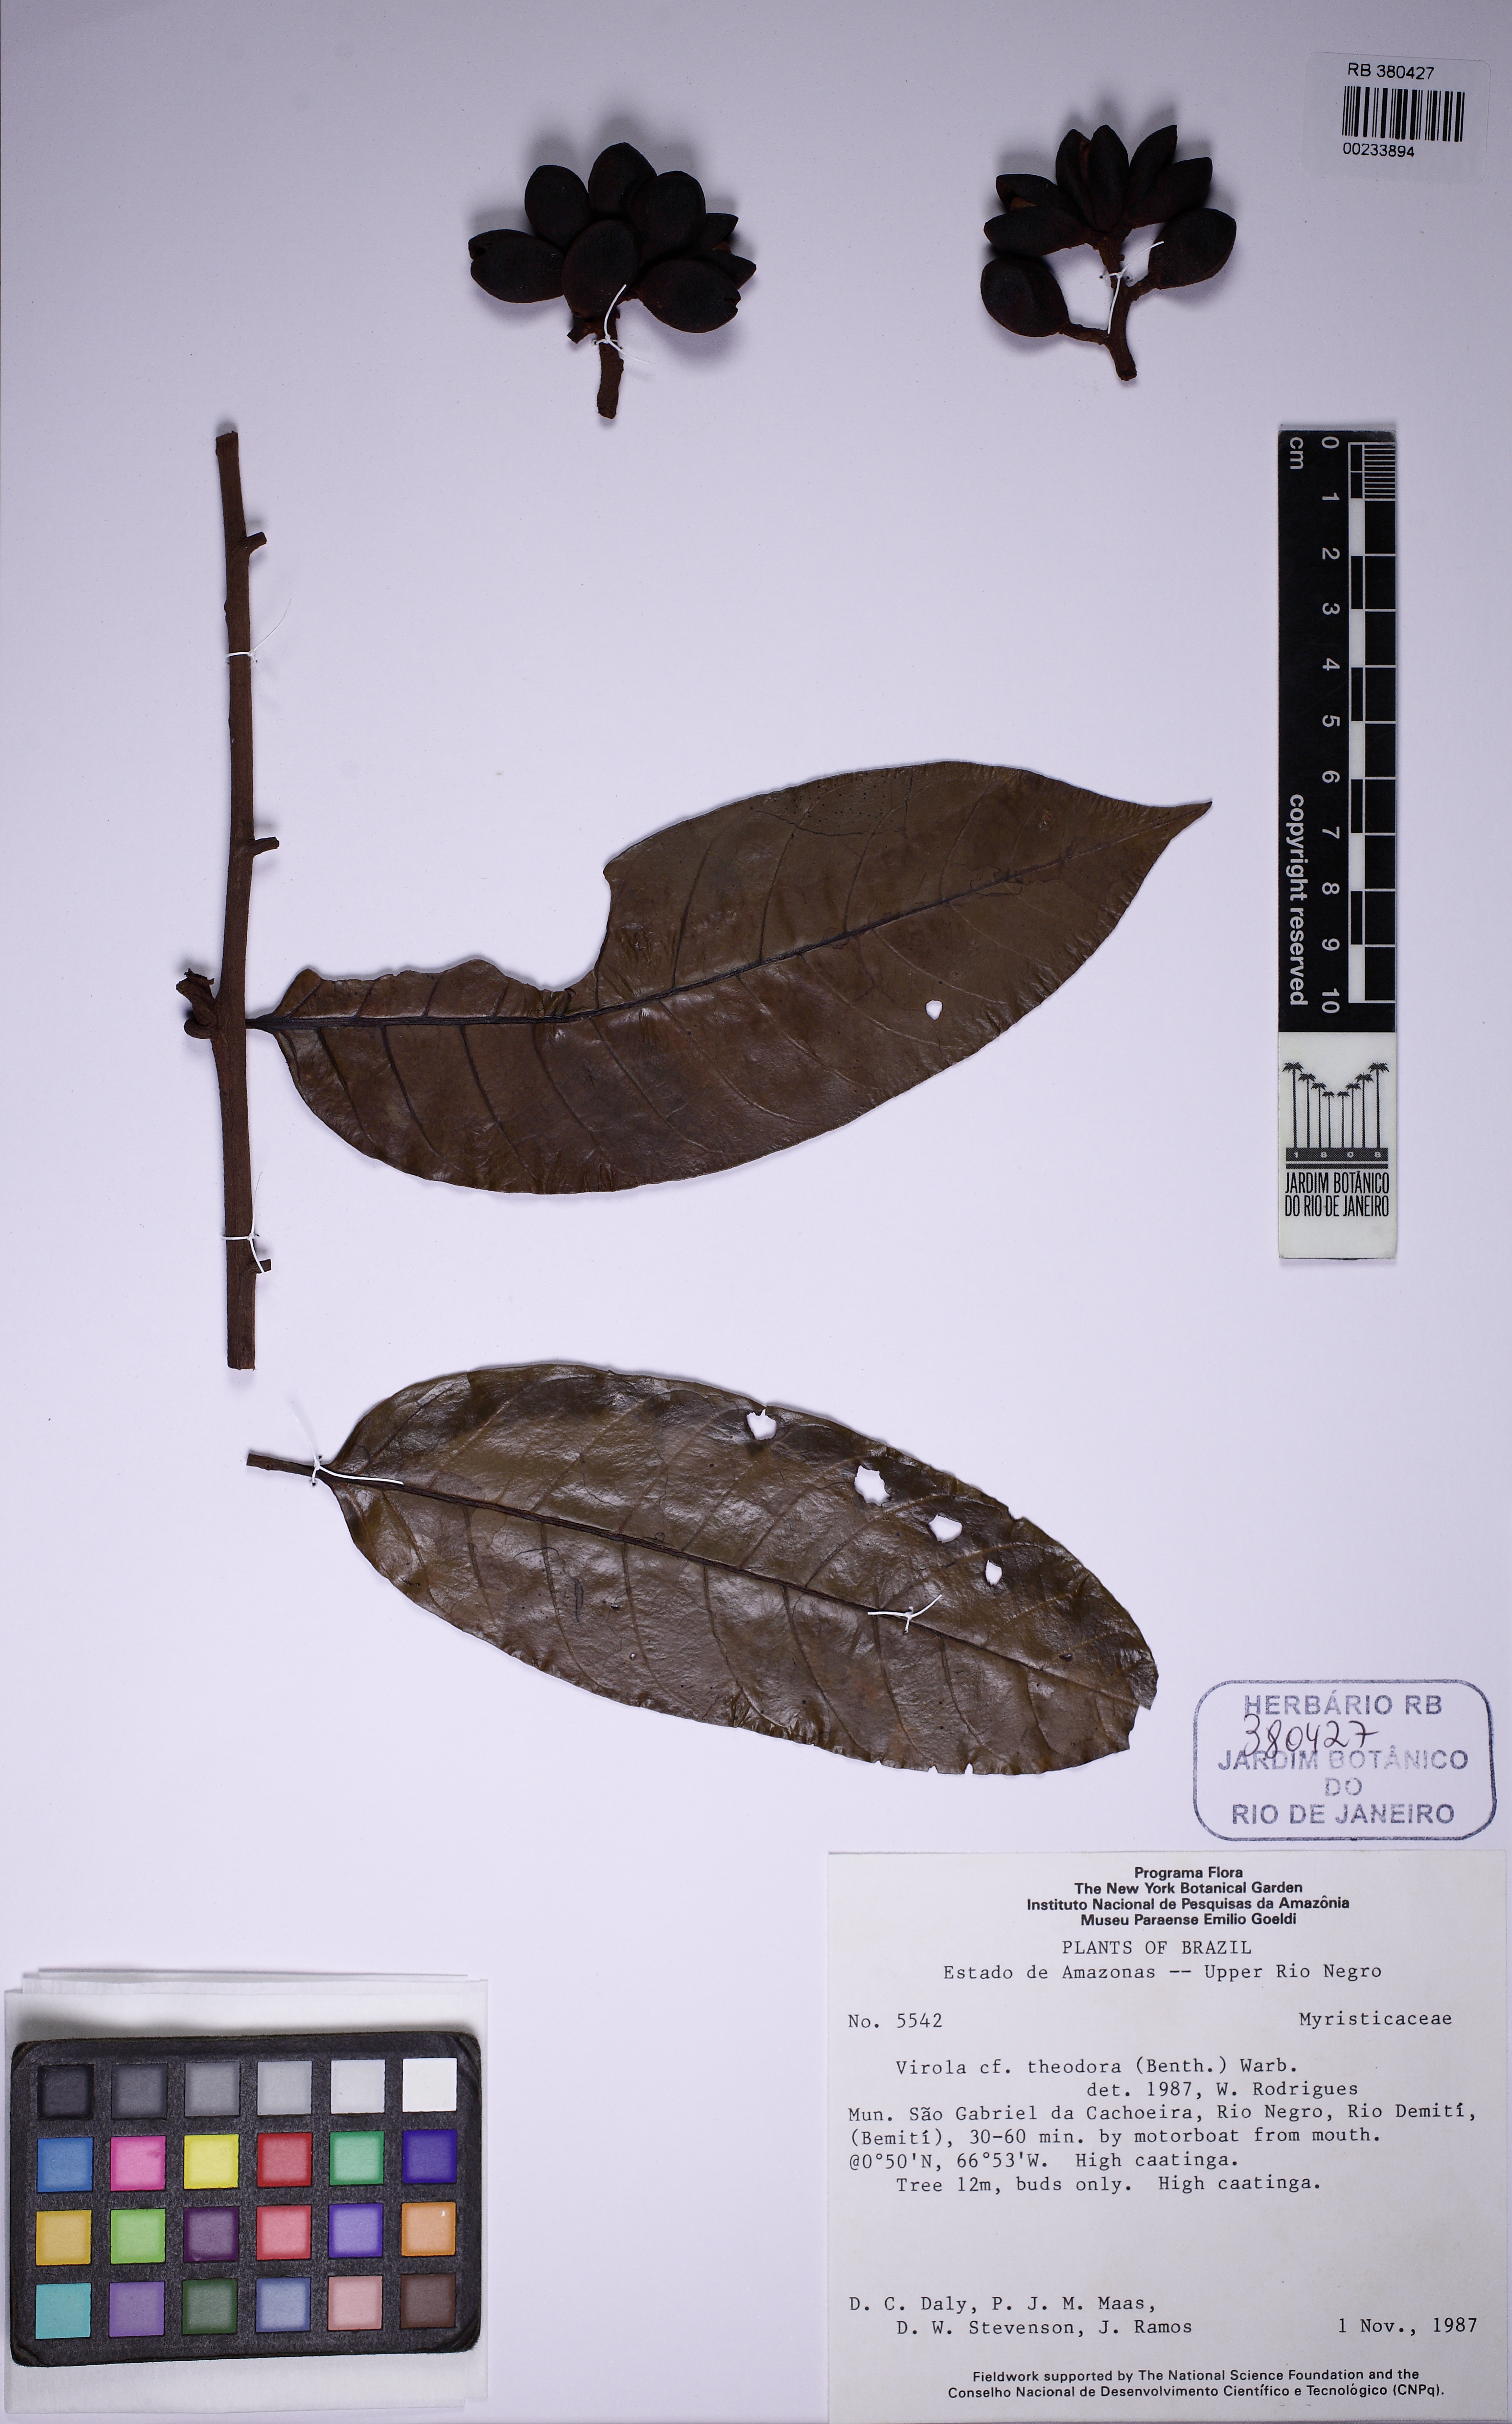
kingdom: Plantae
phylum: Tracheophyta
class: Magnoliopsida
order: Magnoliales
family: Myristicaceae
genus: Virola
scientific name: Virola theiodora
